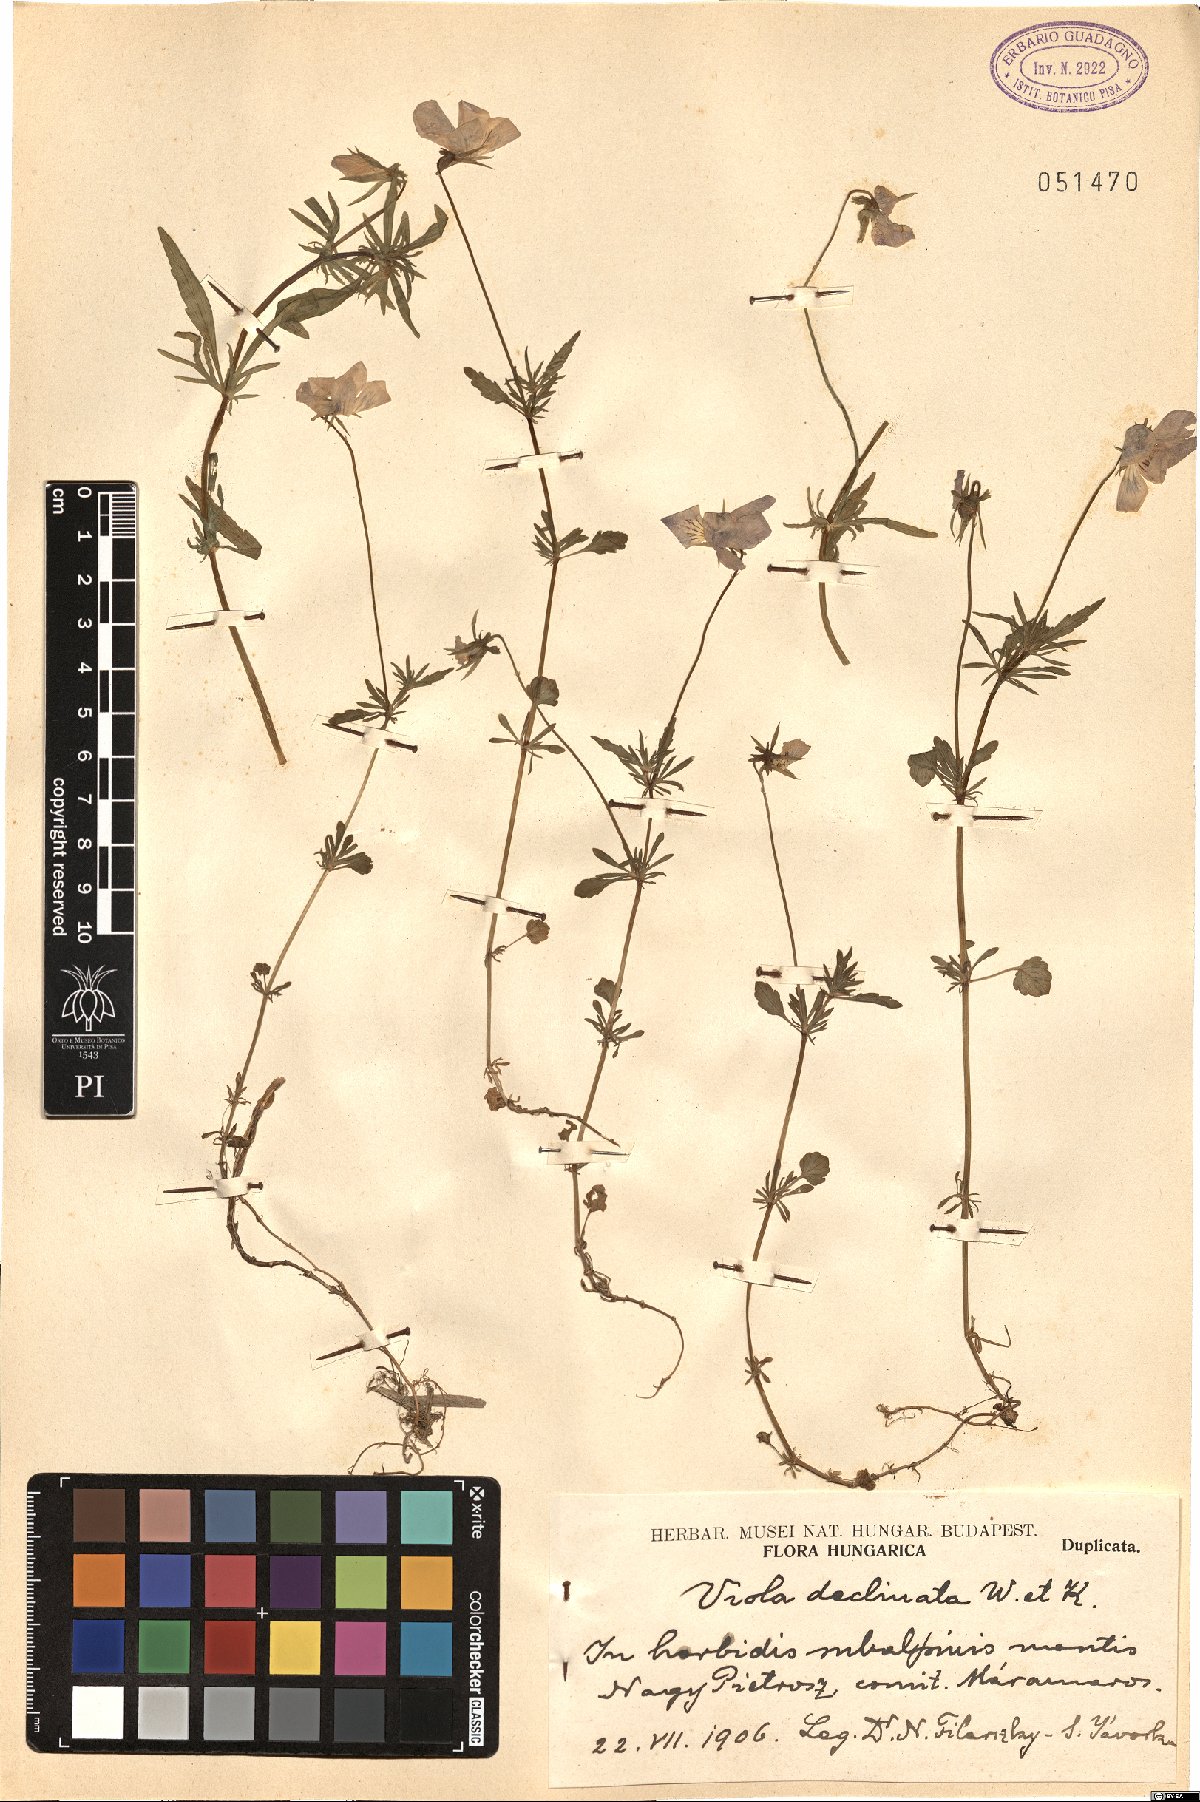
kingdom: Plantae
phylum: Tracheophyta
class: Magnoliopsida
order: Malpighiales
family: Violaceae
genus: Viola
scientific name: Viola declinata
